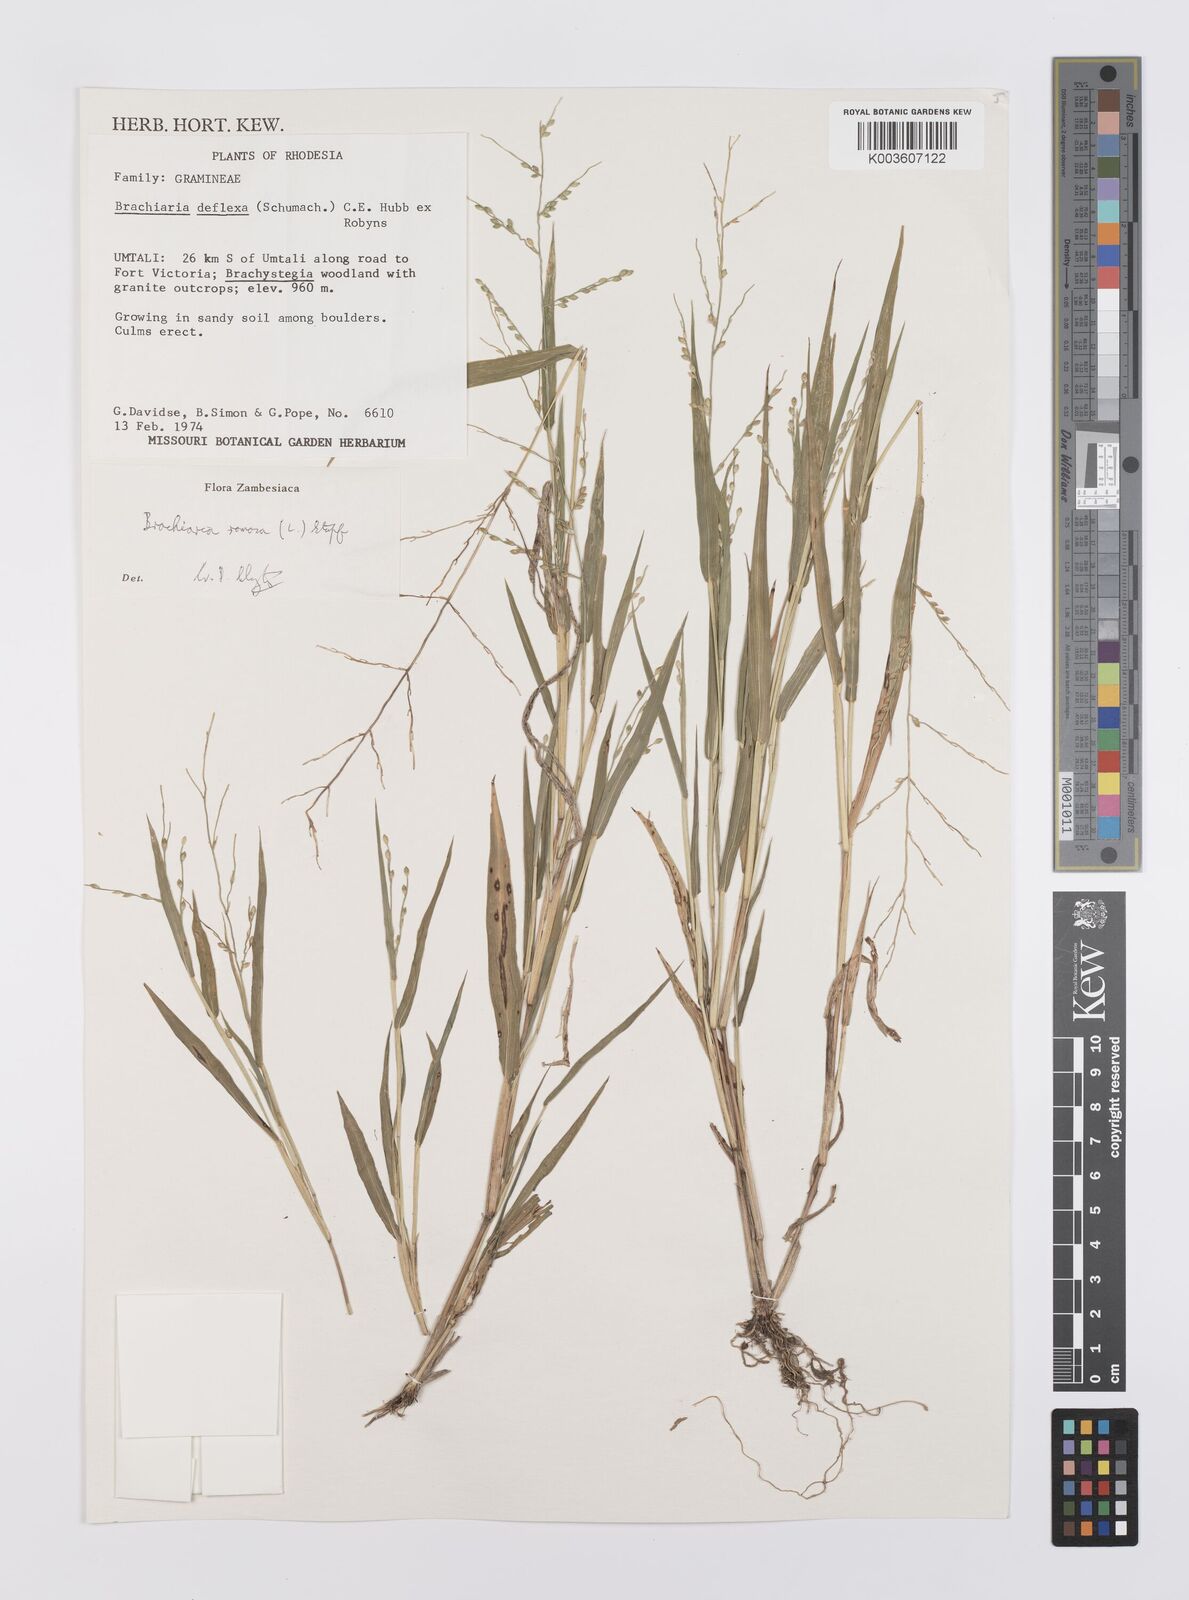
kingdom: Plantae
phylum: Tracheophyta
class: Liliopsida
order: Poales
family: Poaceae
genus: Urochloa
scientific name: Urochloa ramosa
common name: Browntop millet
